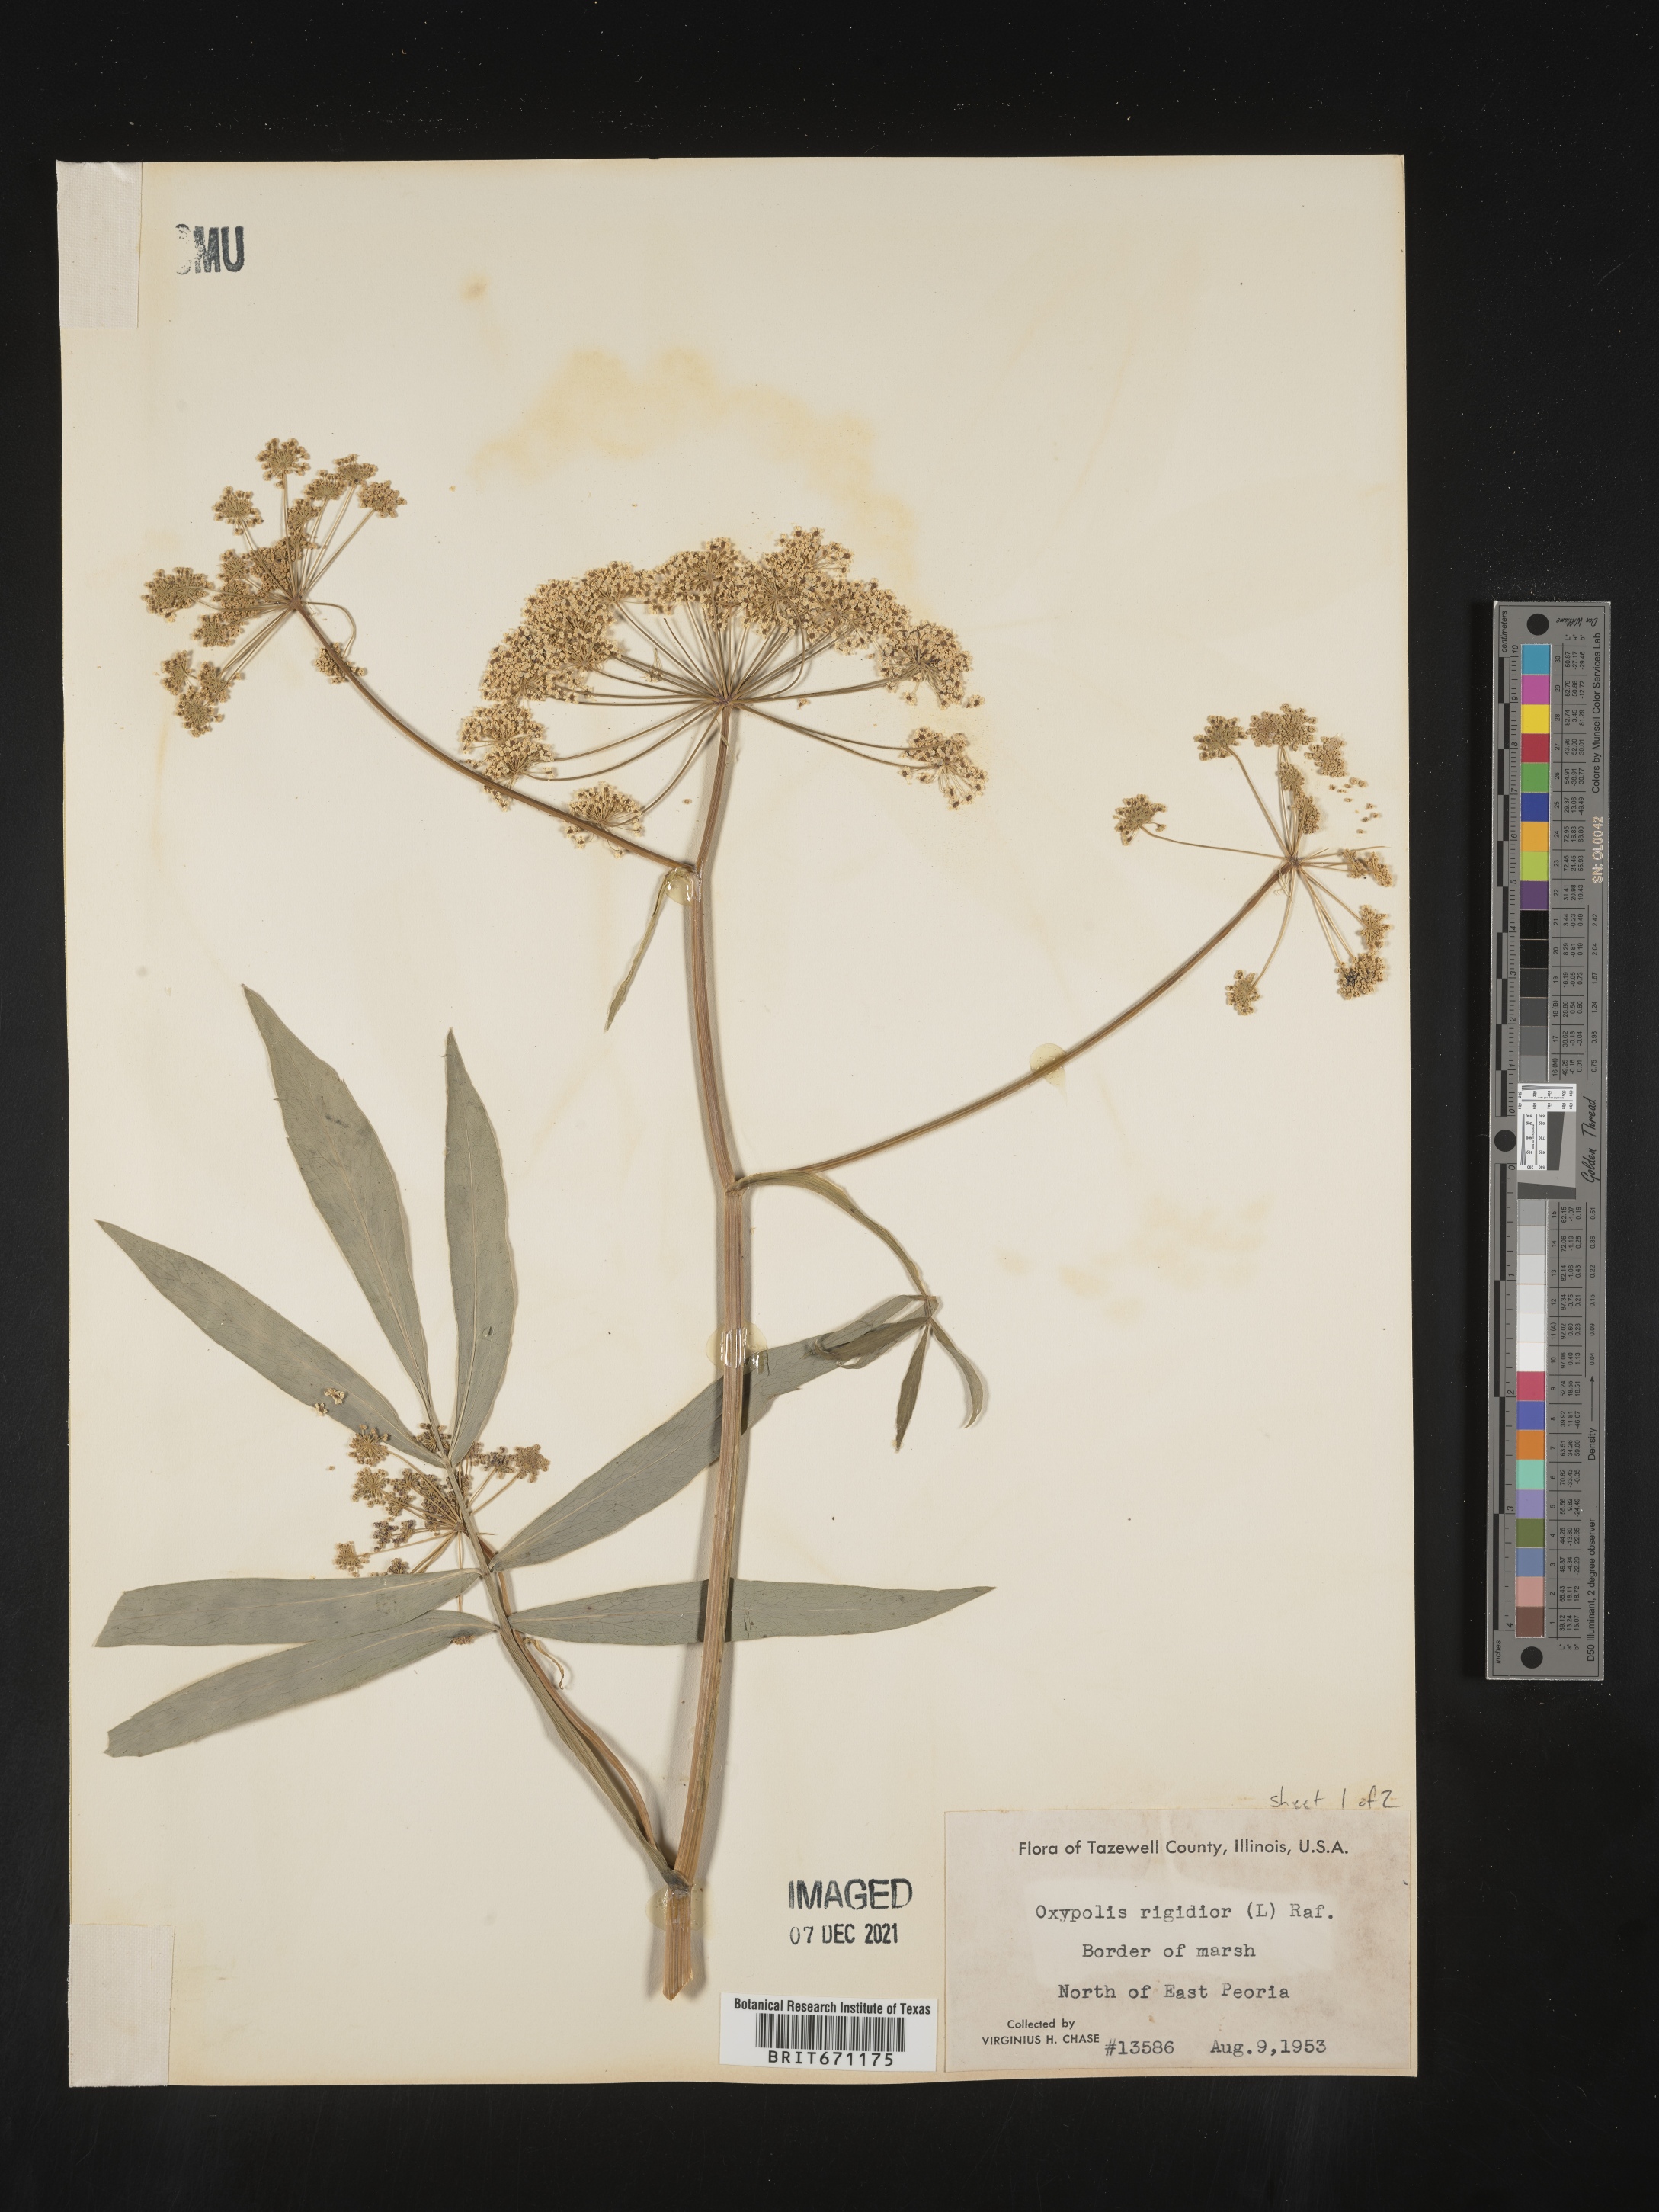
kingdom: Plantae
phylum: Tracheophyta
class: Magnoliopsida
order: Apiales
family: Apiaceae
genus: Oxypolis
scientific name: Oxypolis rigidior
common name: Cowbane
